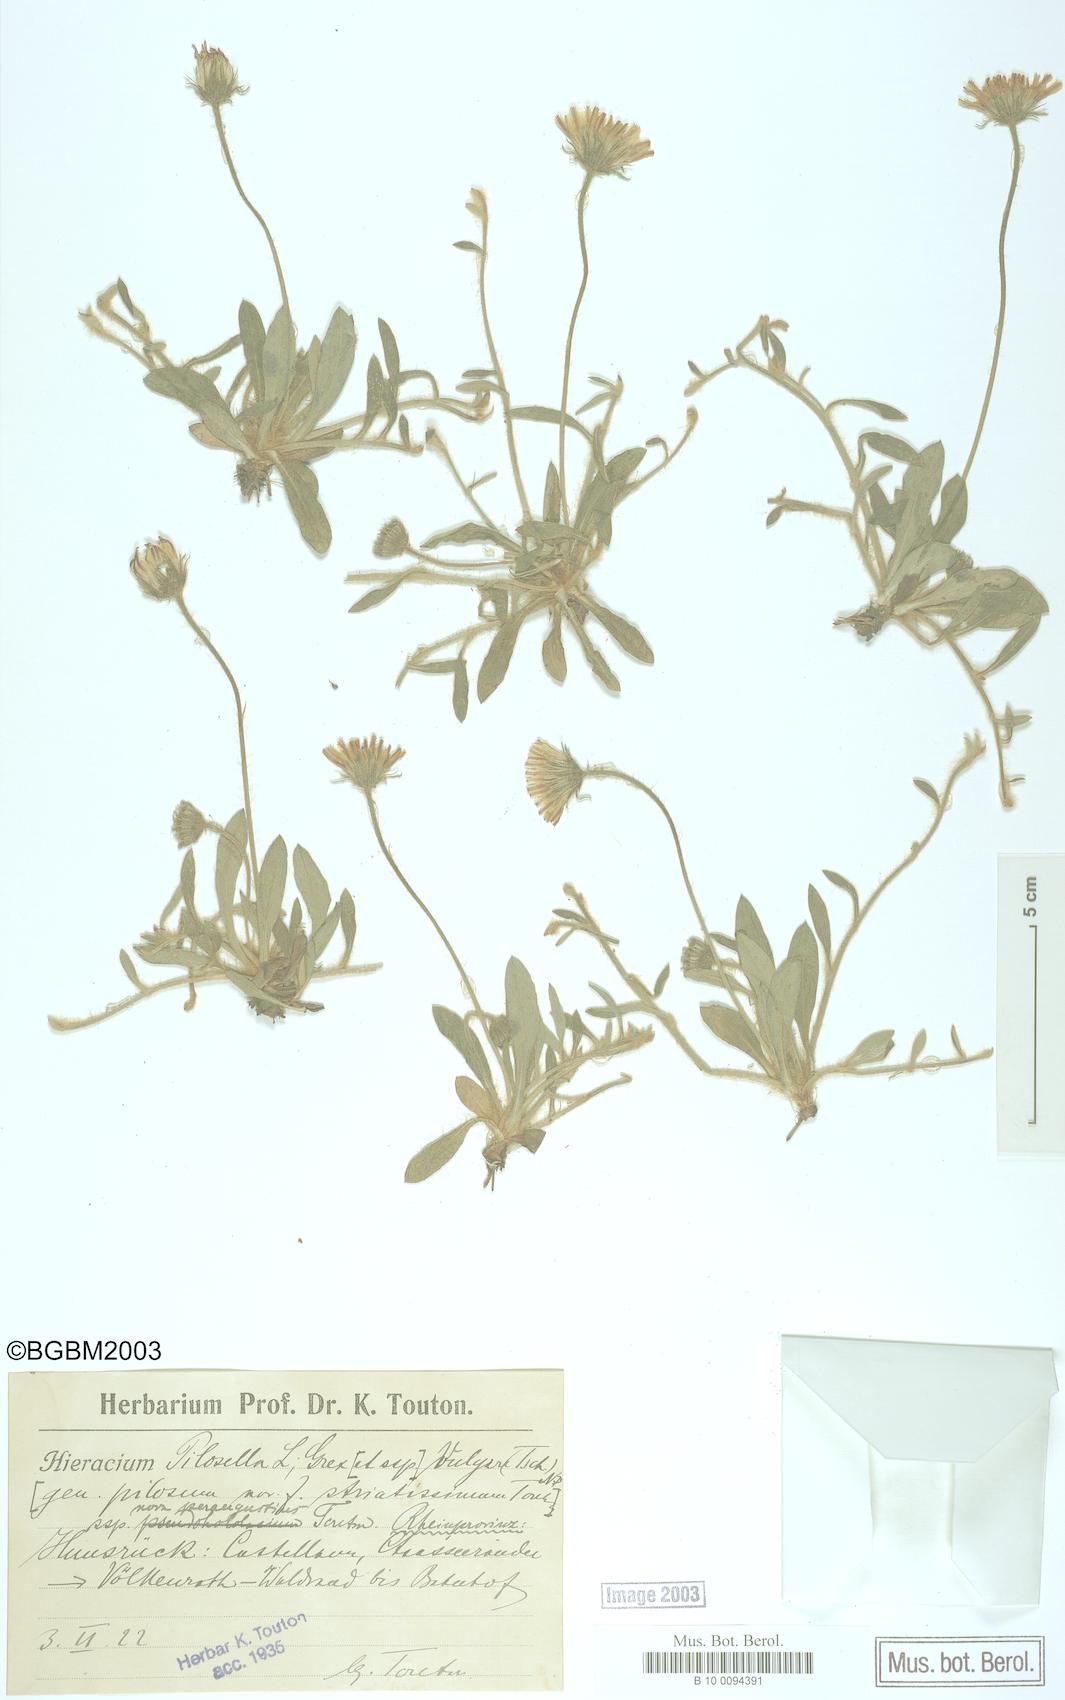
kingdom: Plantae
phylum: Tracheophyta
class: Magnoliopsida
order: Asterales
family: Asteraceae
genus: Pilosella
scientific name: Pilosella officinarum
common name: Mouse-ear hawkweed
